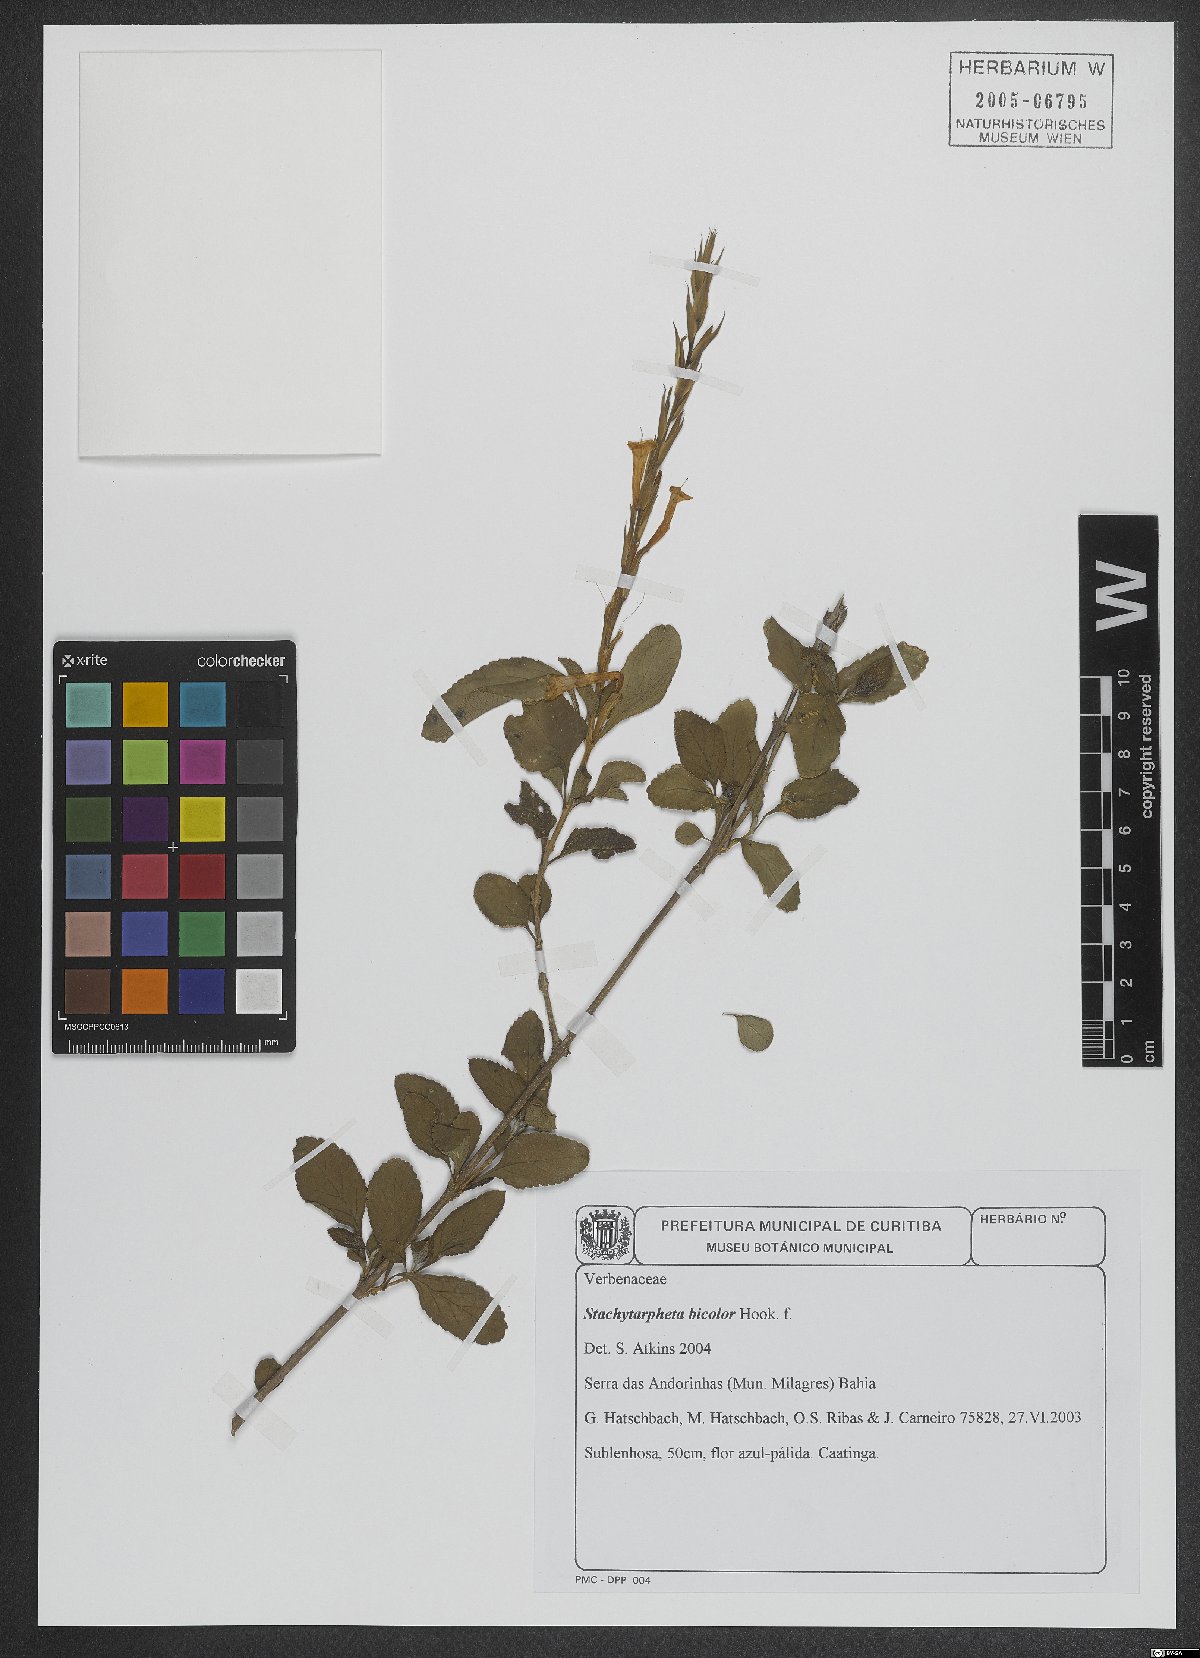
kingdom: Plantae
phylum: Tracheophyta
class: Magnoliopsida
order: Lamiales
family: Verbenaceae
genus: Stachytarpheta
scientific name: Stachytarpheta bicolor
